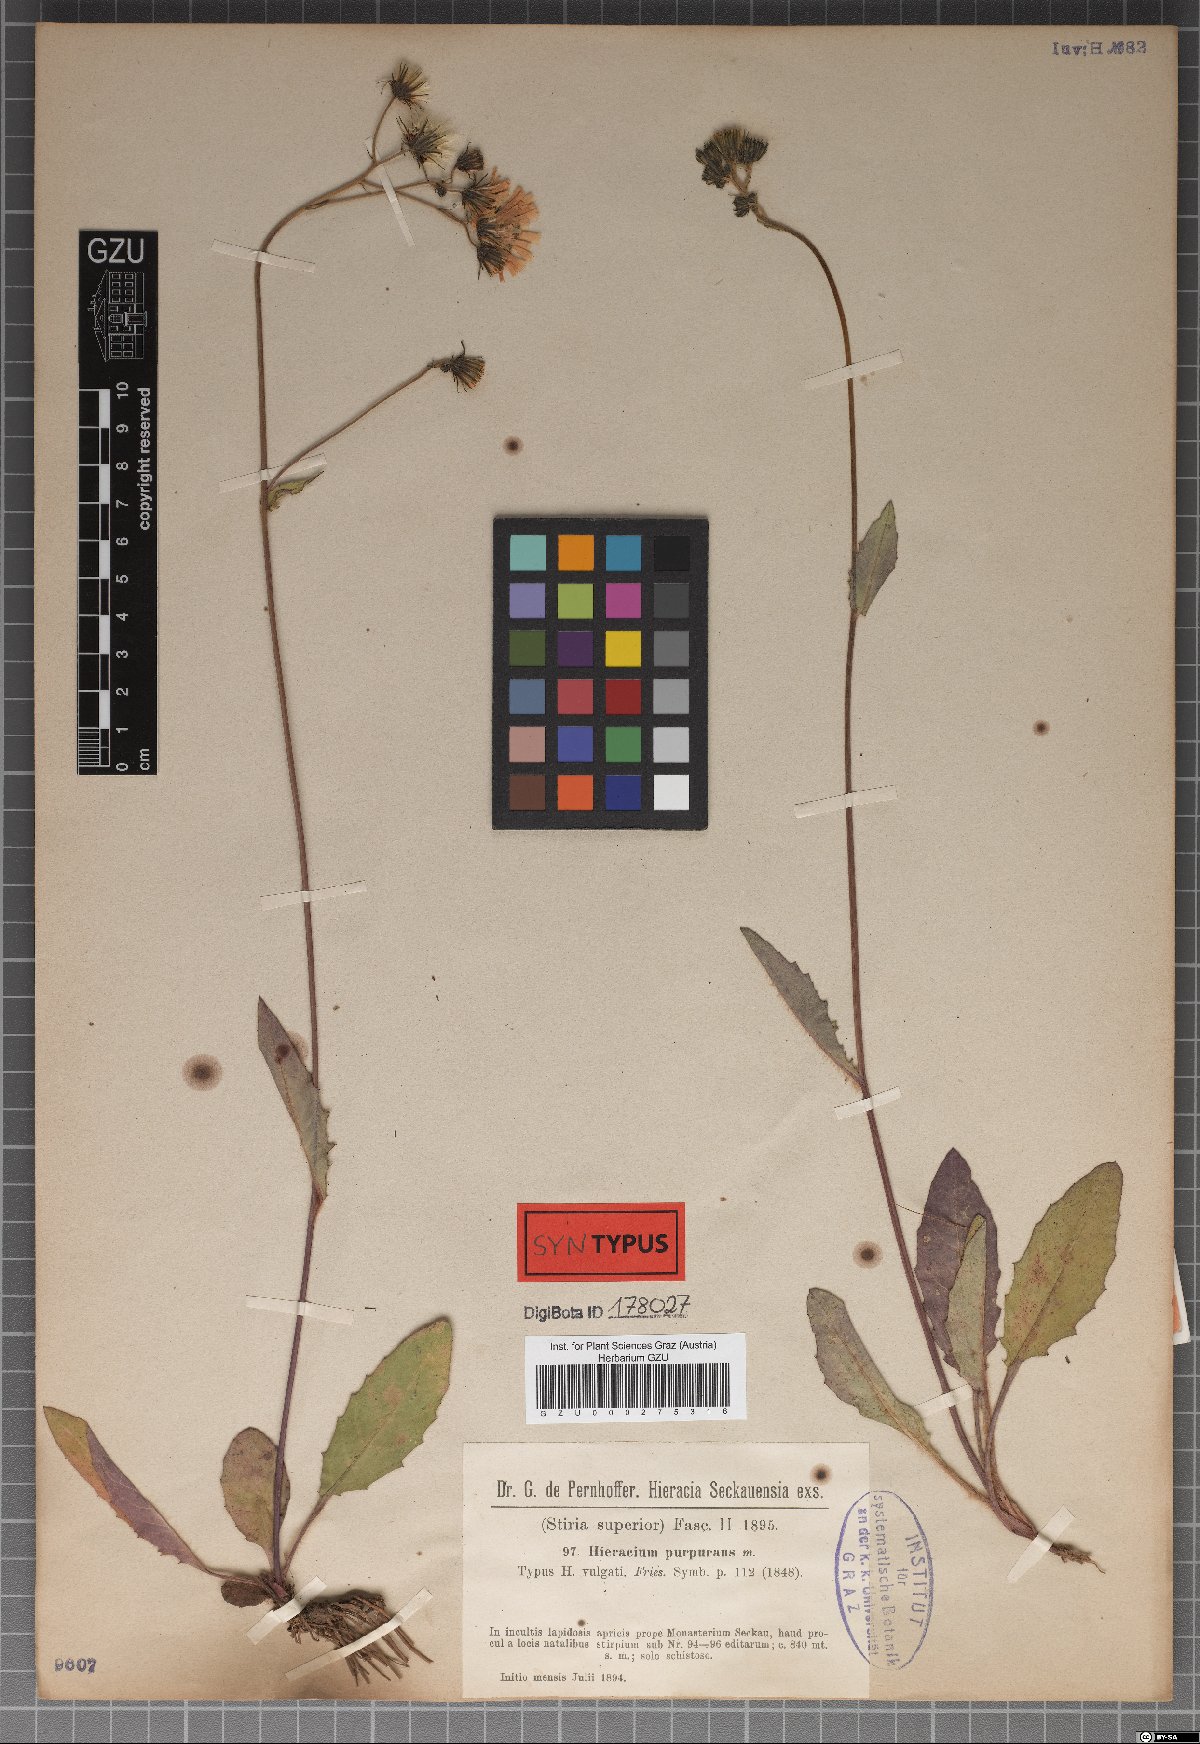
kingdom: Plantae
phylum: Tracheophyta
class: Magnoliopsida
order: Asterales
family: Asteraceae
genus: Hieracium
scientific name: Hieracium purpurans
